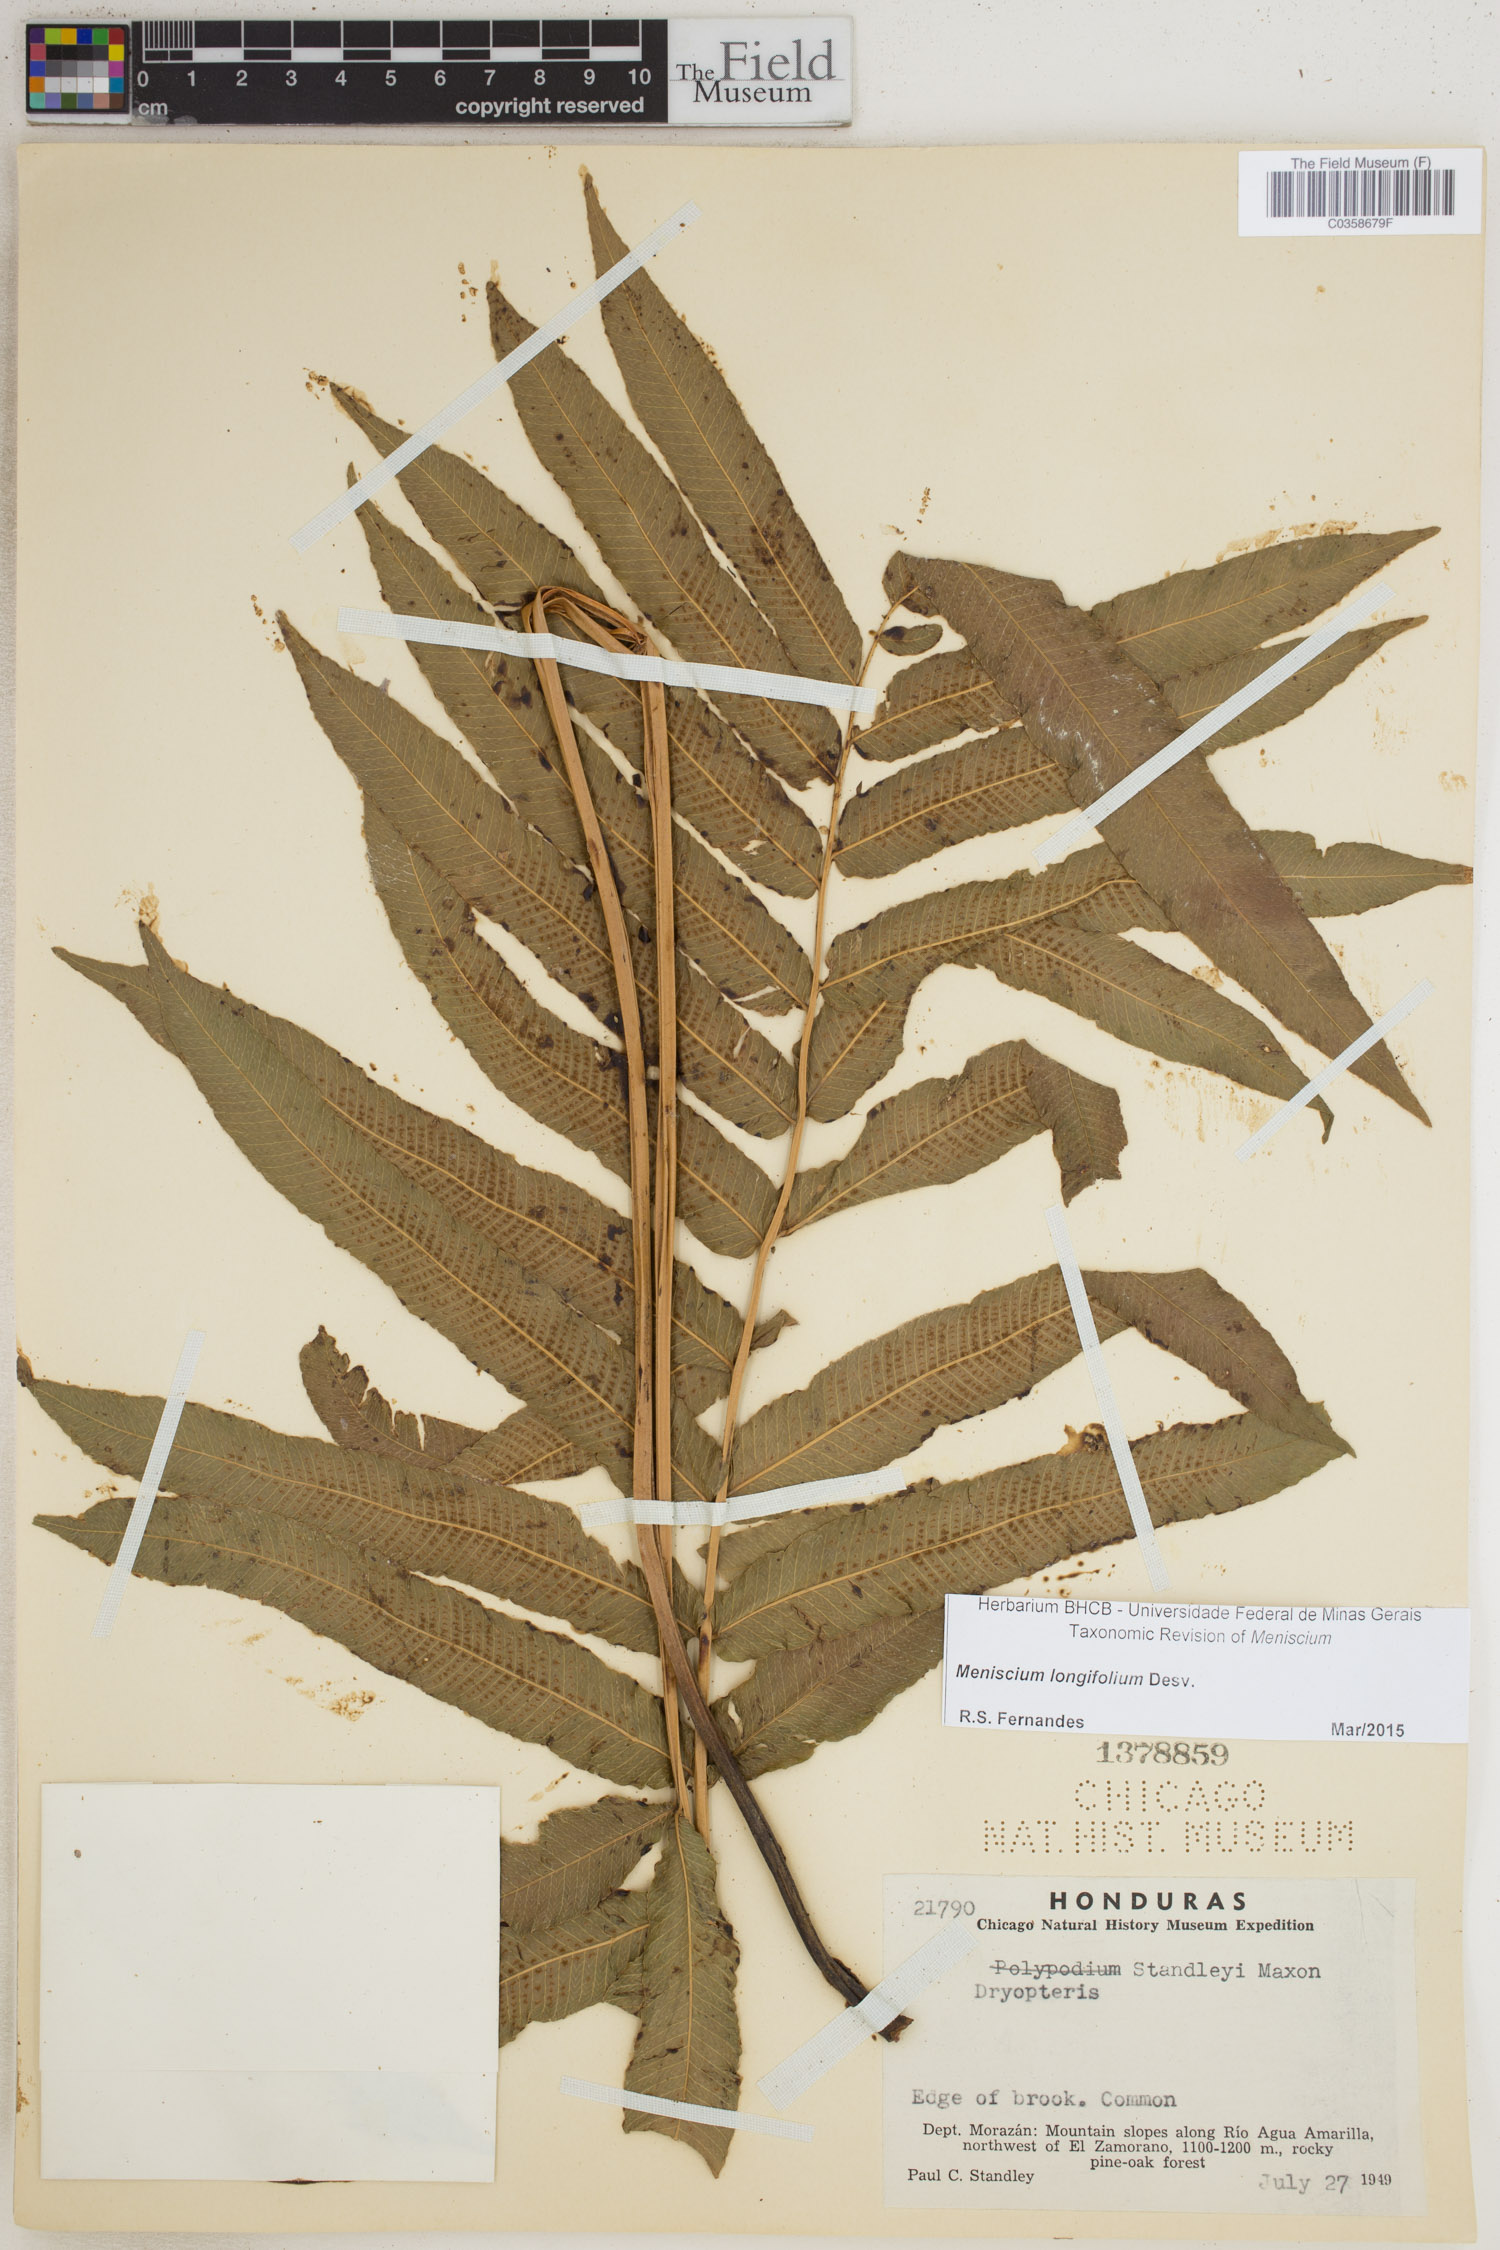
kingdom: Plantae
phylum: Tracheophyta
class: Polypodiopsida
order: Polypodiales
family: Thelypteridaceae
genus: Meniscium
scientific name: Meniscium longifolium
